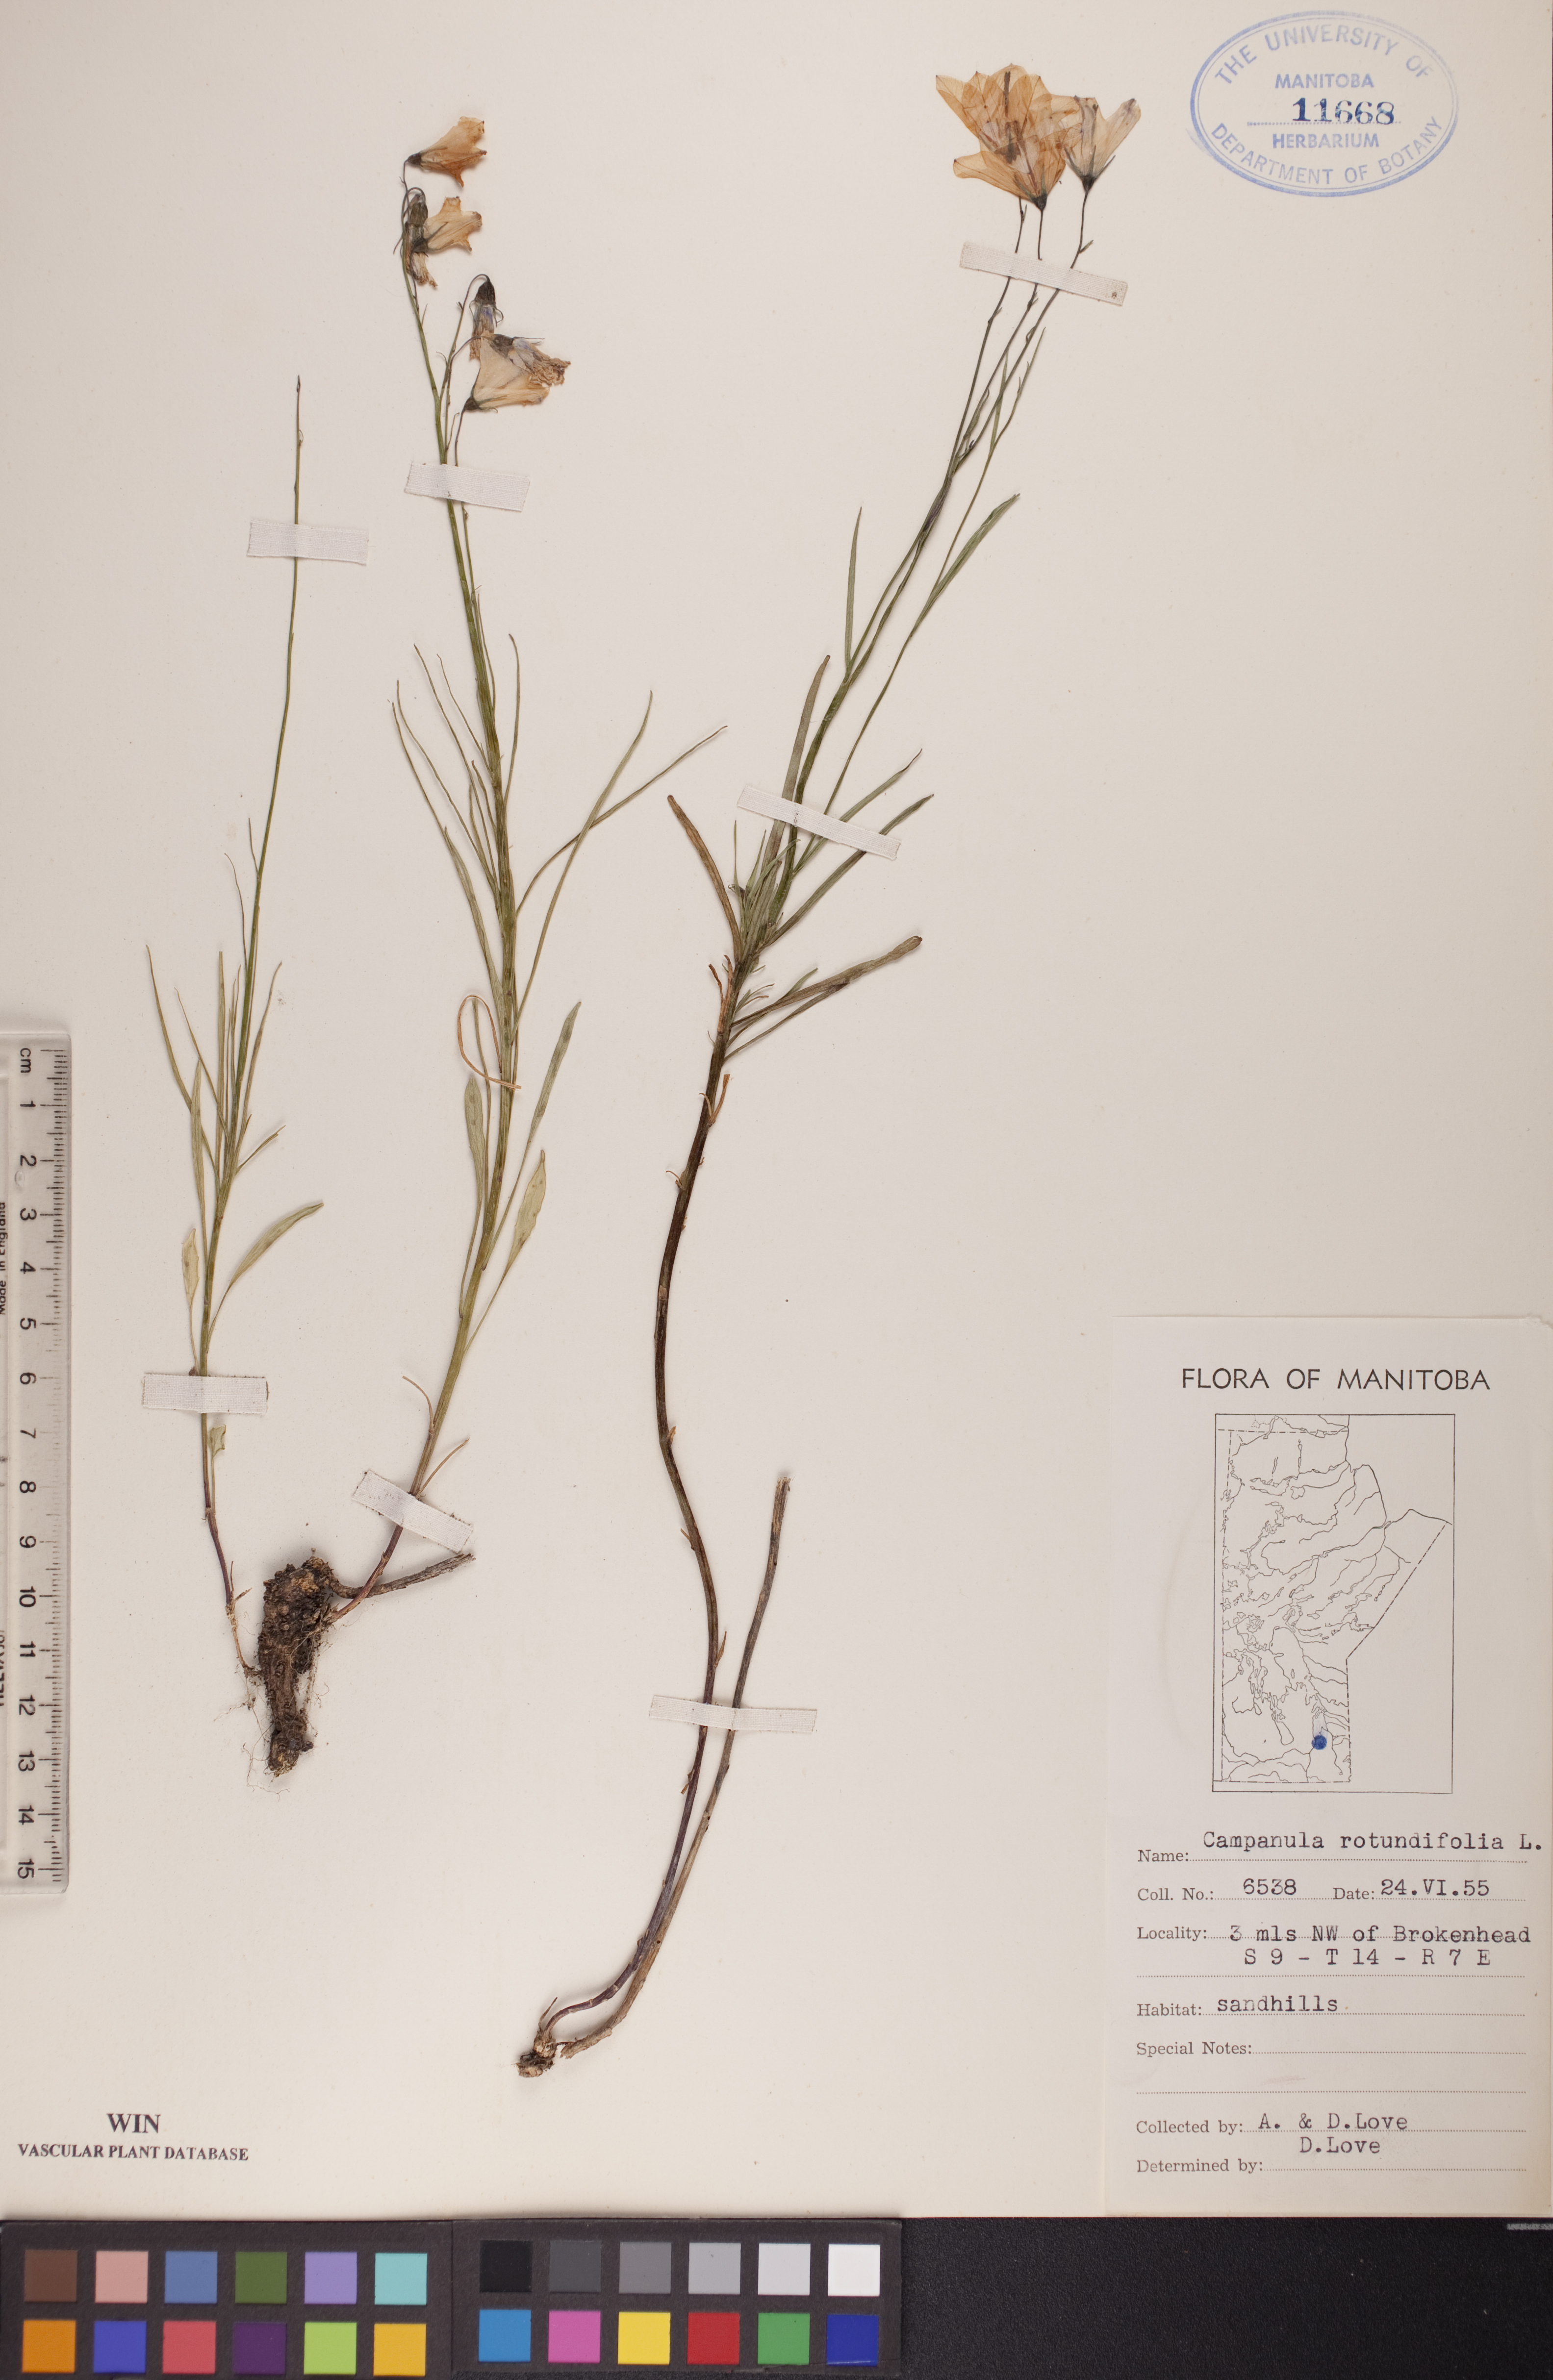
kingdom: Plantae
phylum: Tracheophyta
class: Magnoliopsida
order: Asterales
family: Campanulaceae
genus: Campanula
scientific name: Campanula rotundifolia
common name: Harebell
